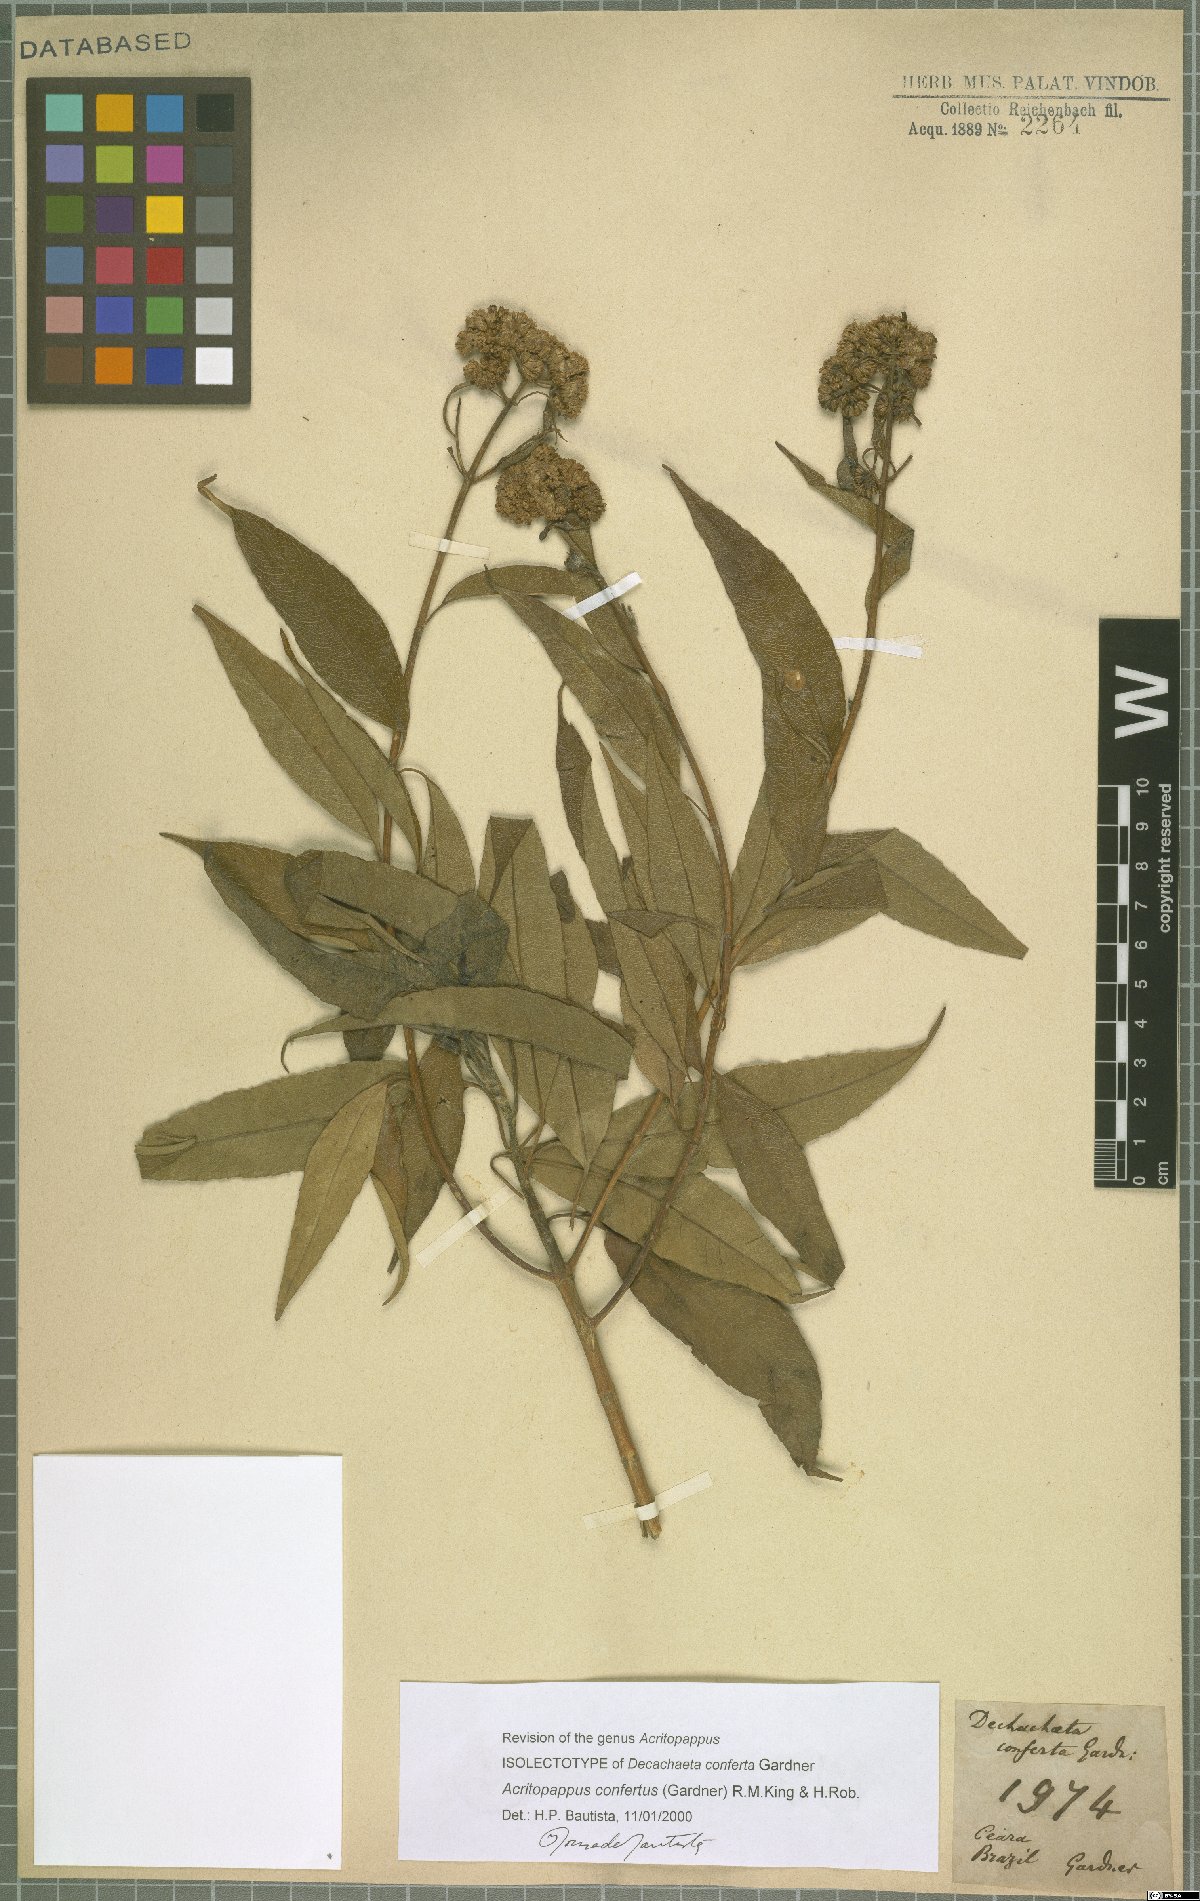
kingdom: Plantae
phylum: Tracheophyta
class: Magnoliopsida
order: Asterales
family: Asteraceae
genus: Acritopappus
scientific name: Acritopappus confertus
